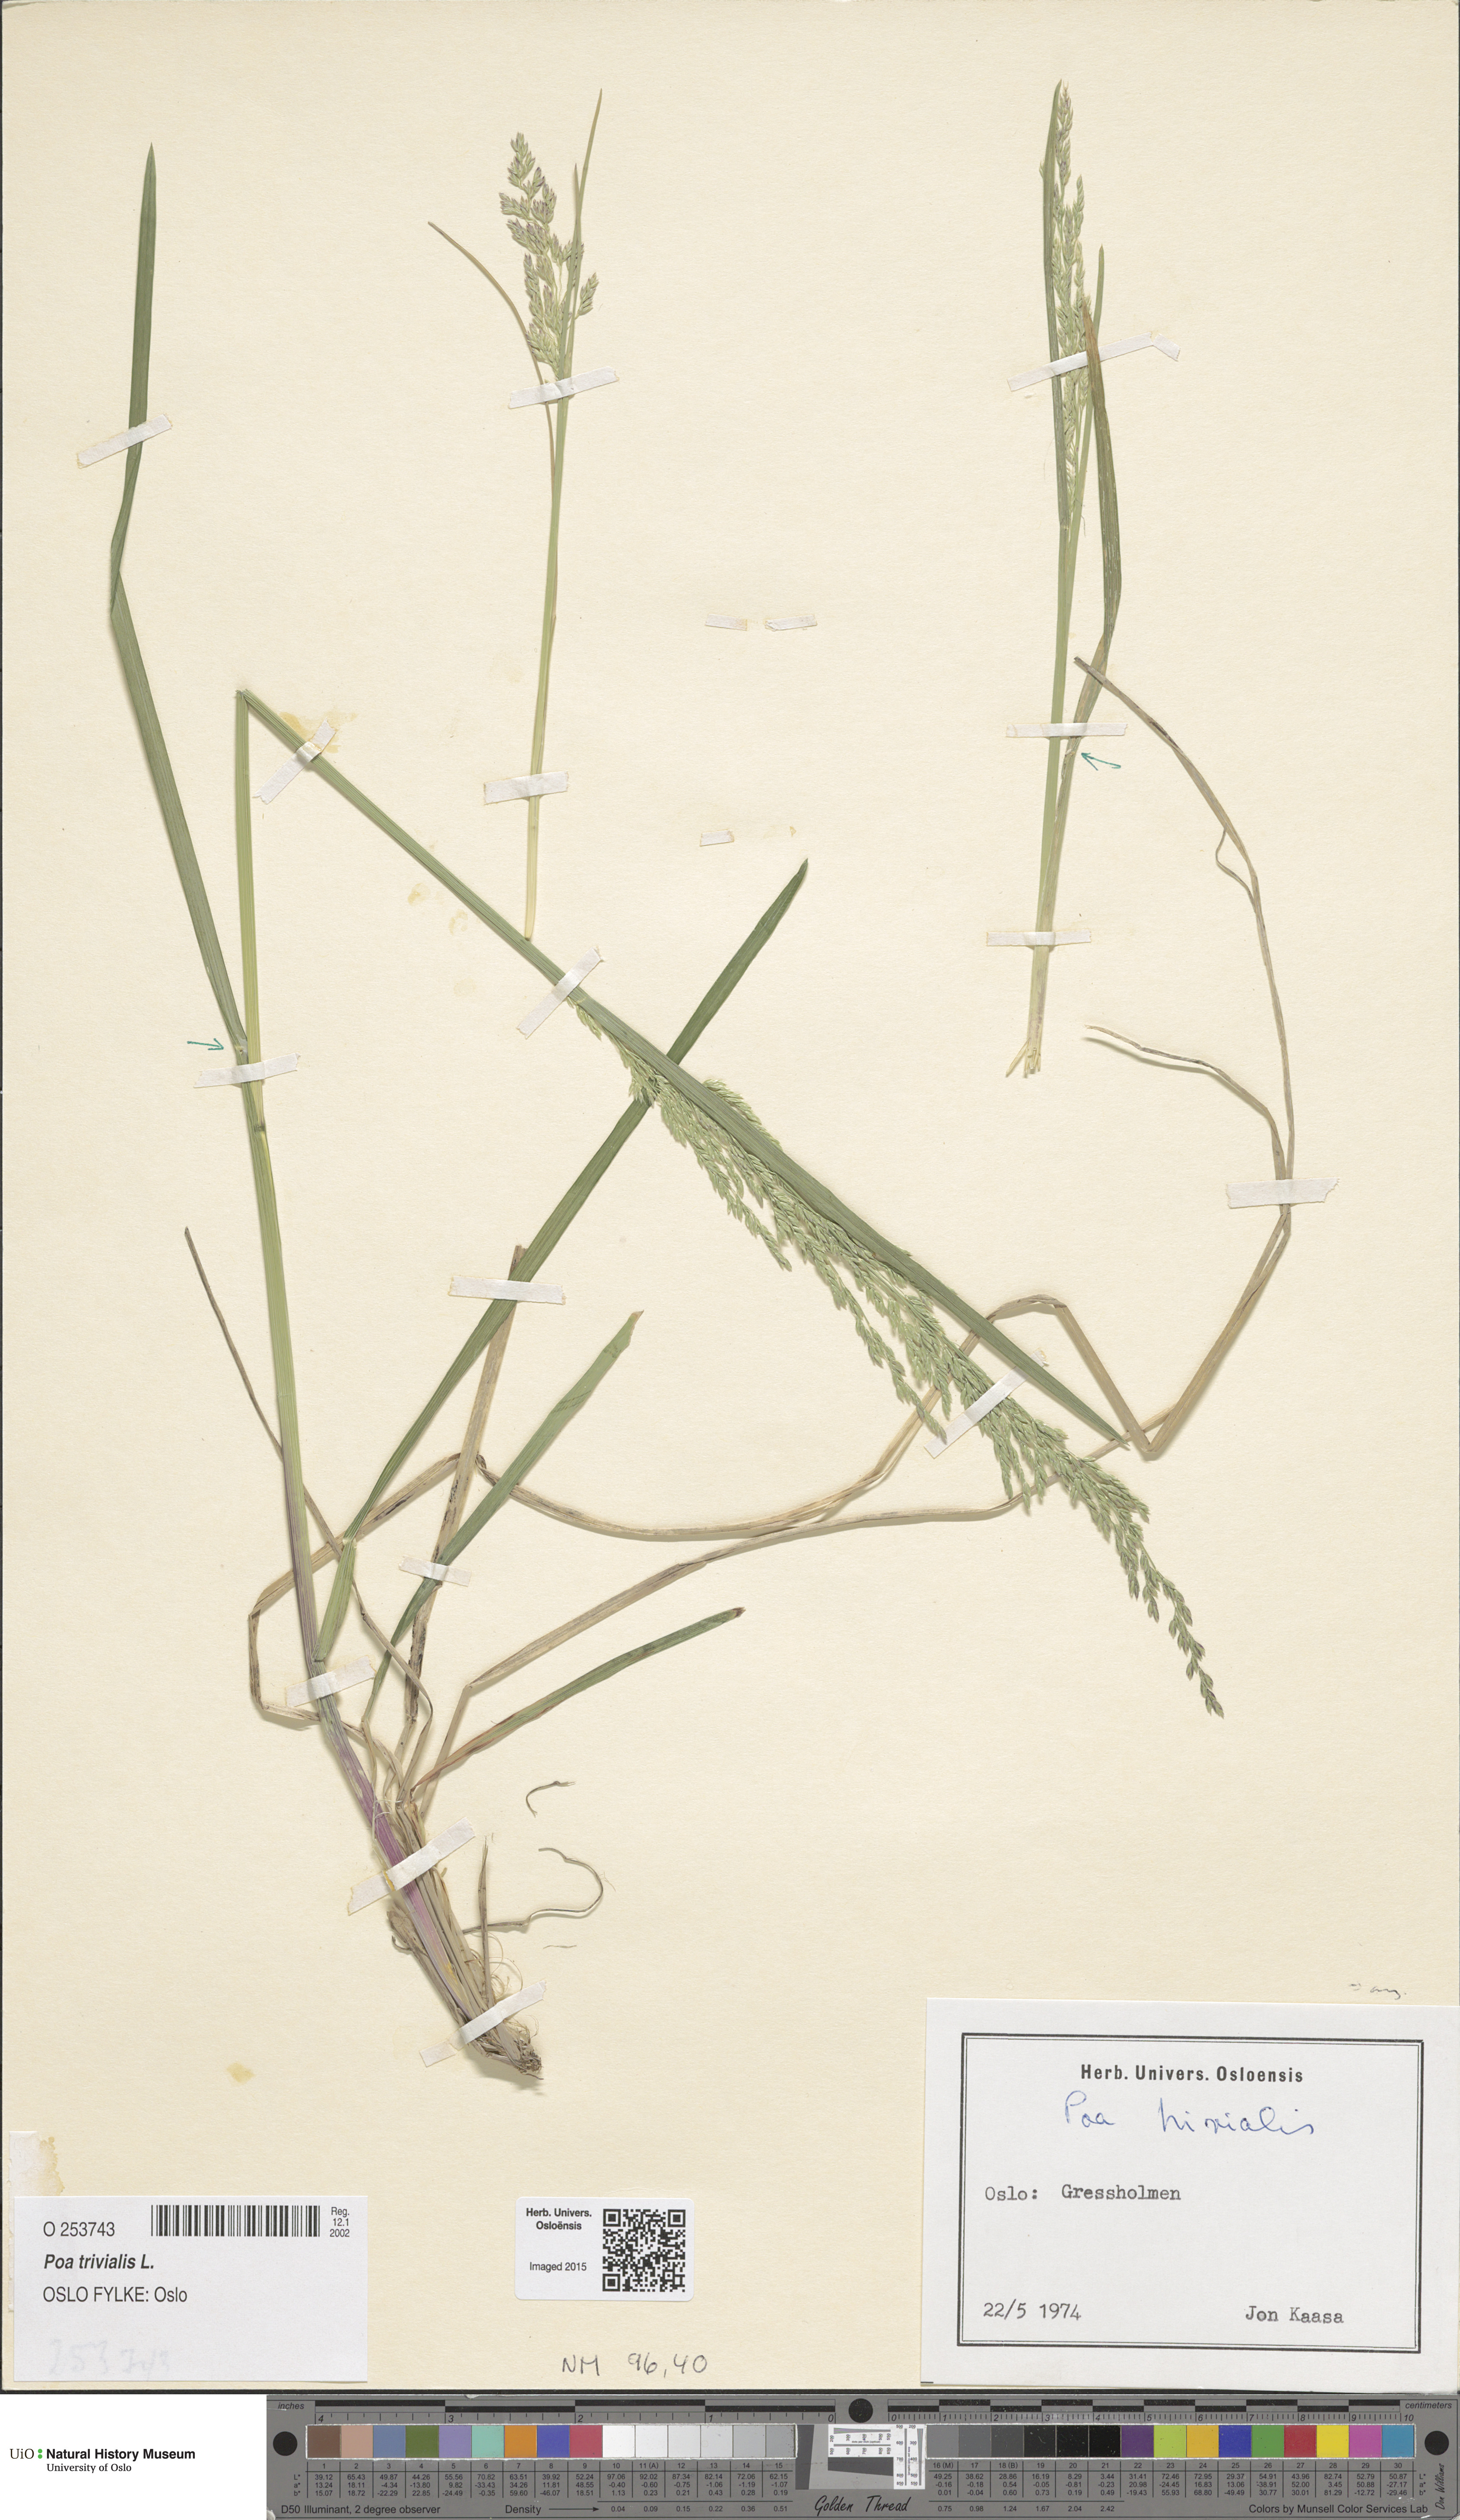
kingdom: Plantae
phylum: Tracheophyta
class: Liliopsida
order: Poales
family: Poaceae
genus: Poa
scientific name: Poa trivialis
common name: Rough bluegrass
